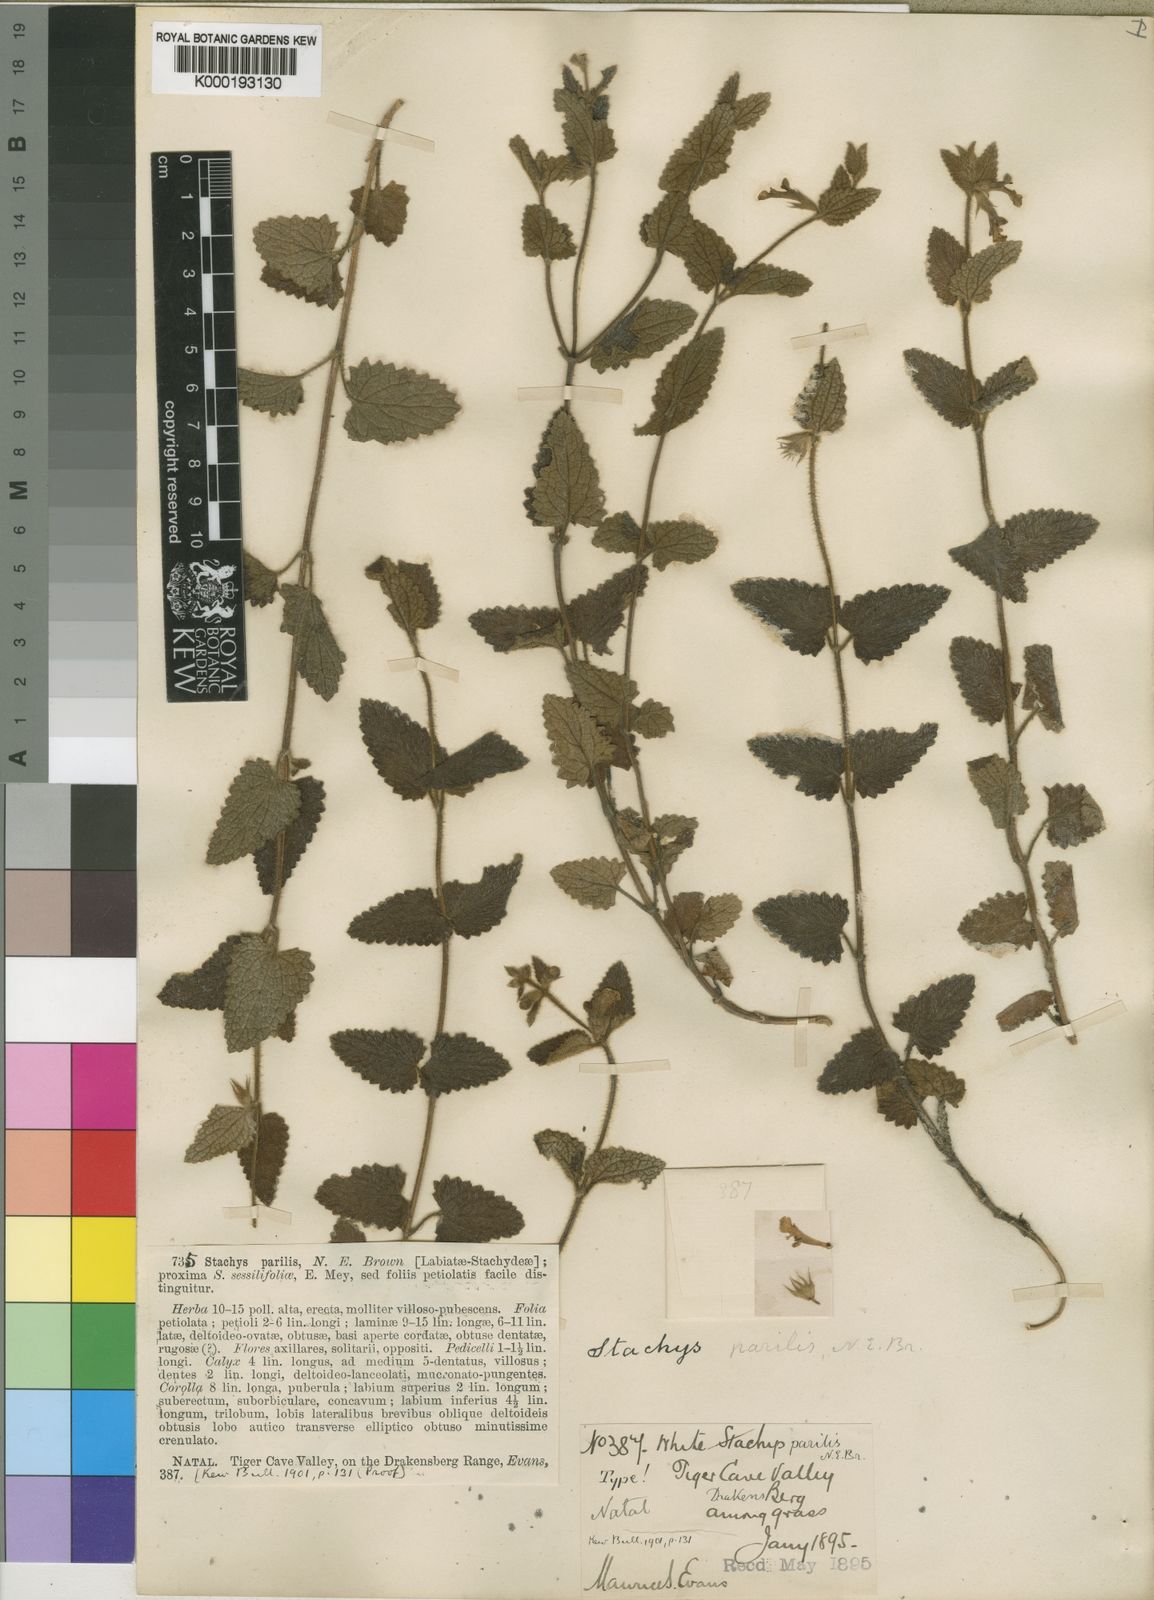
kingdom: Plantae
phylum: Tracheophyta
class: Magnoliopsida
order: Lamiales
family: Lamiaceae
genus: Stachys
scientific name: Stachys natalensis
